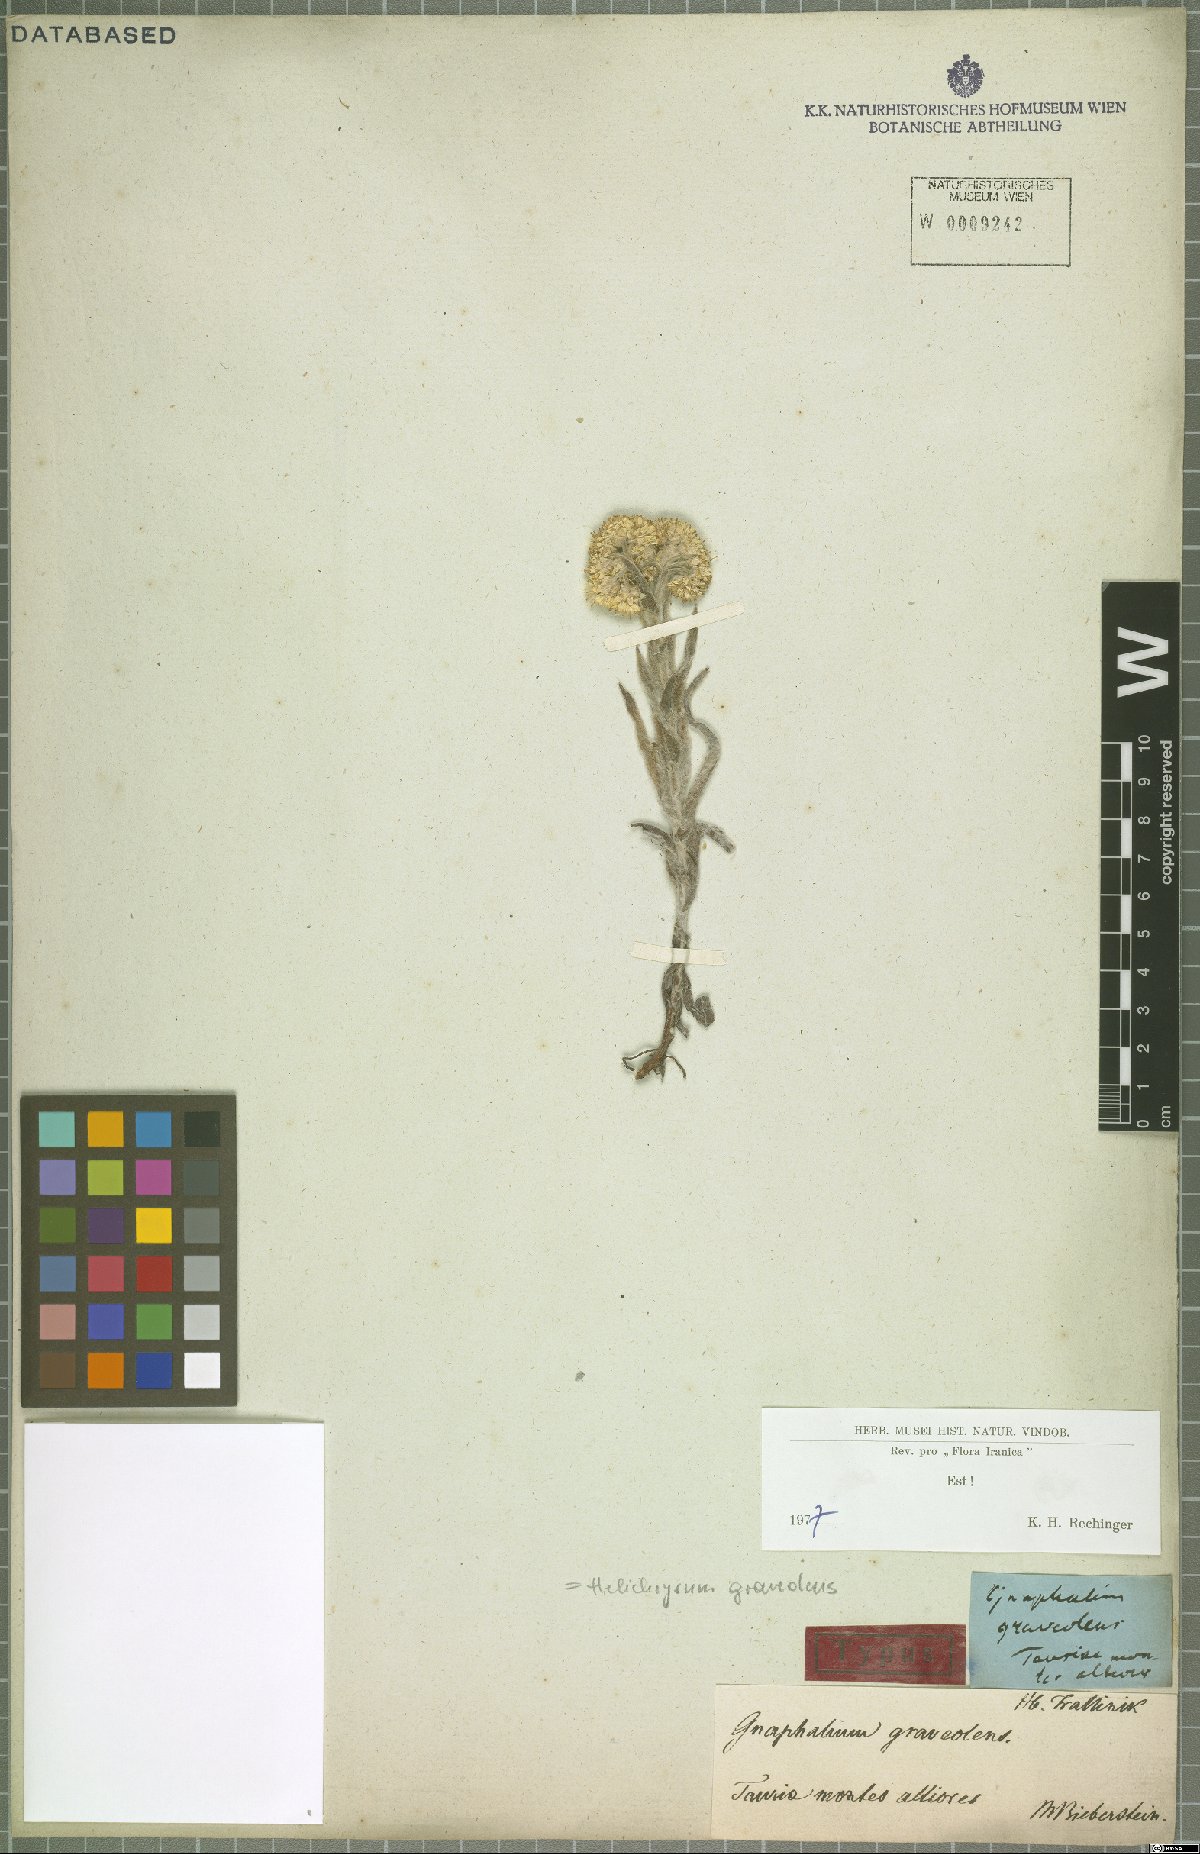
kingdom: Plantae
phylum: Tracheophyta
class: Magnoliopsida
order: Asterales
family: Asteraceae
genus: Helichrysum
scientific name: Helichrysum graveolens
